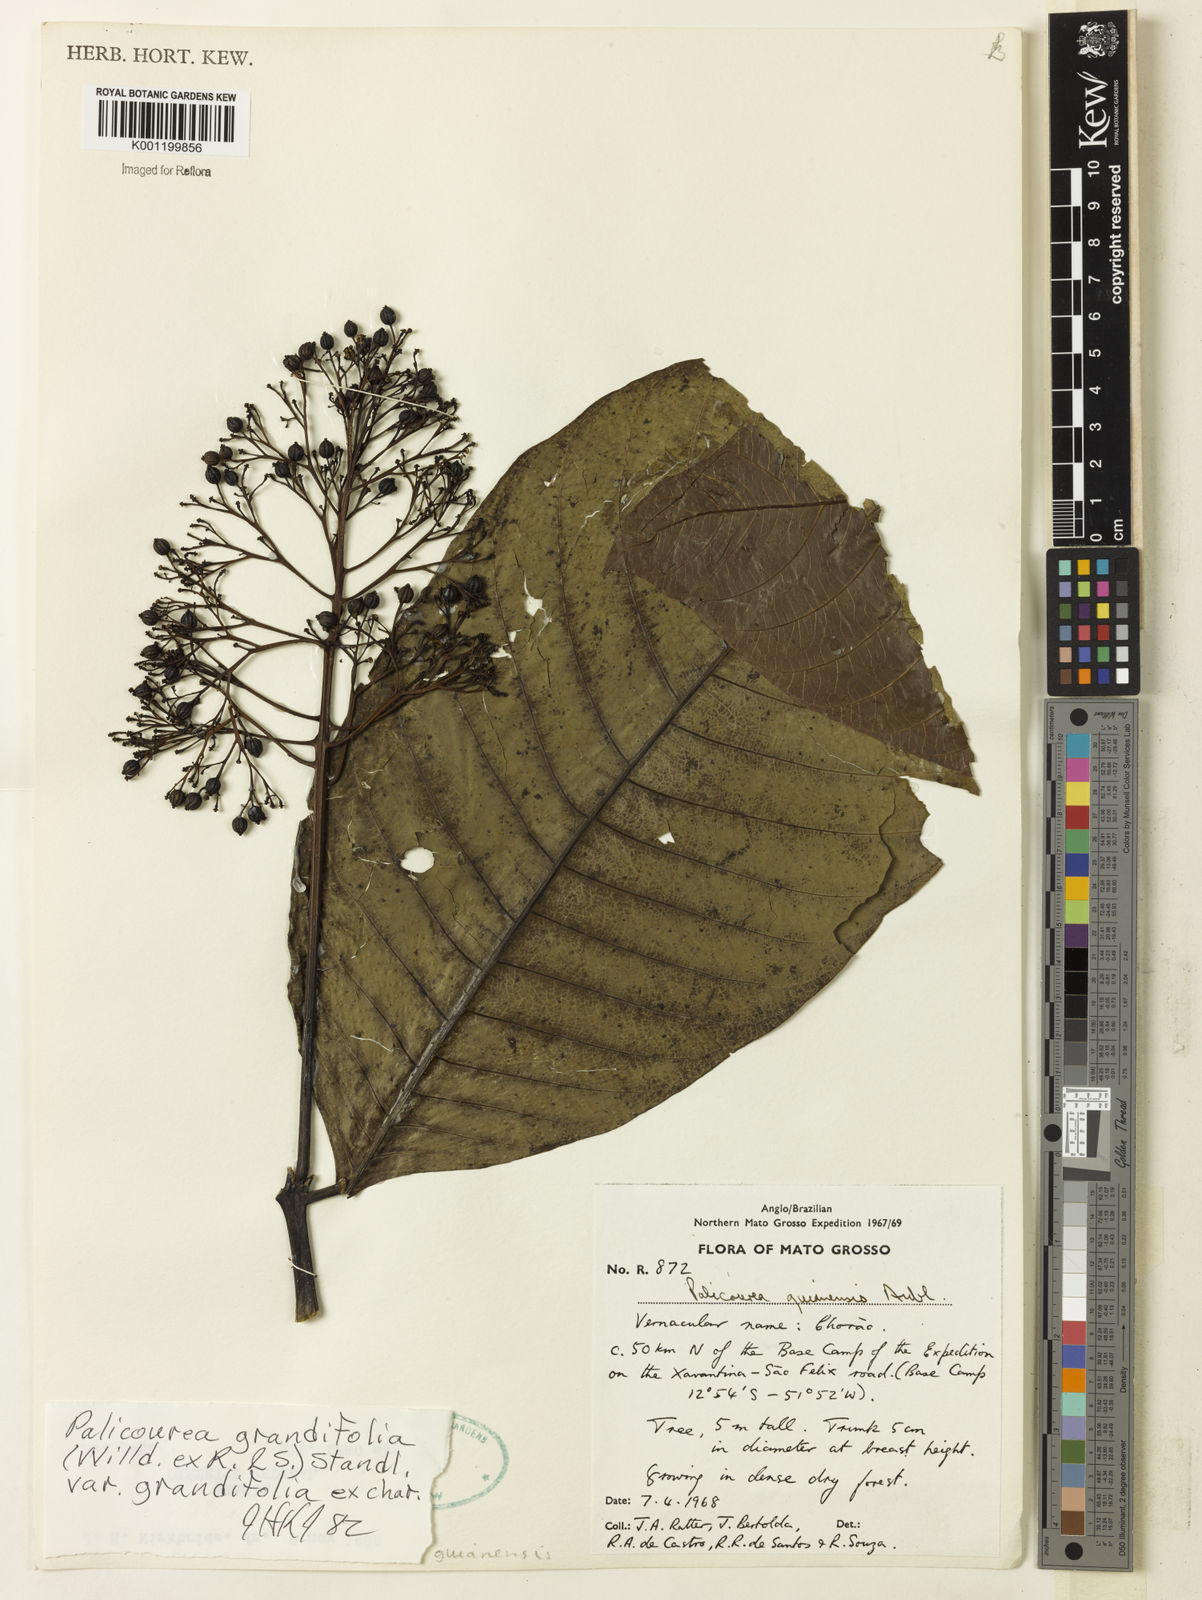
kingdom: Plantae
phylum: Tracheophyta
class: Magnoliopsida
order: Gentianales
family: Rubiaceae
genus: Palicourea
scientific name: Palicourea grandifolia
